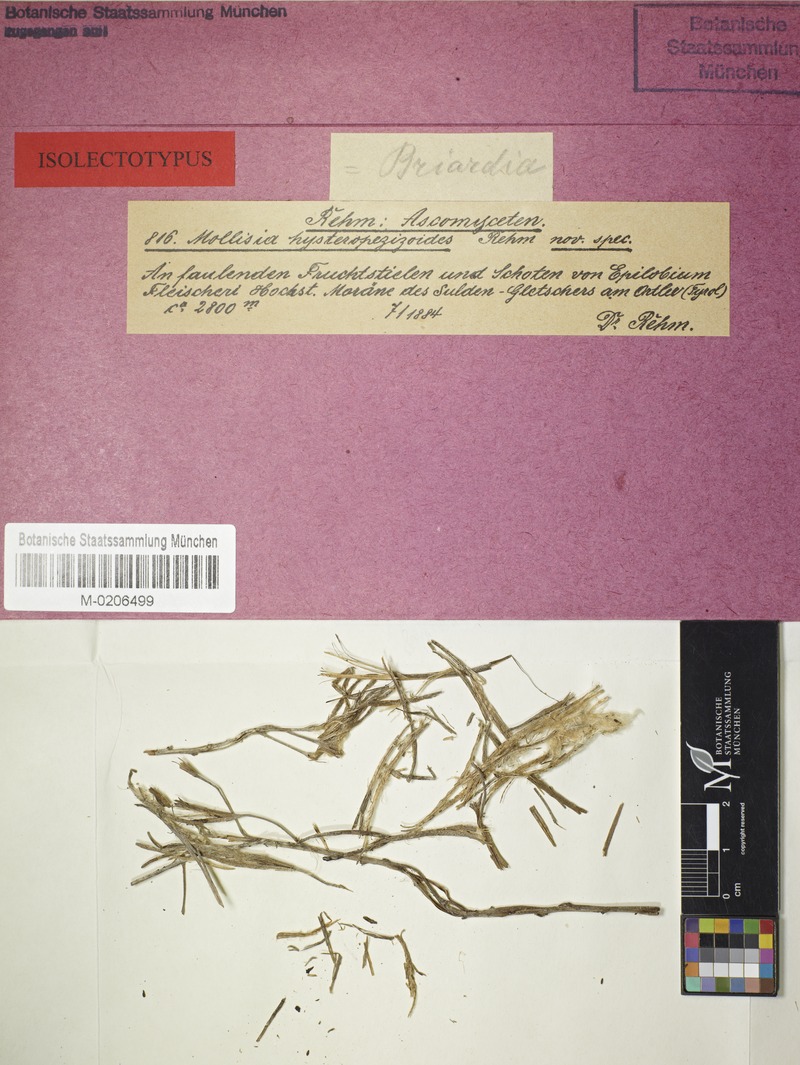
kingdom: Fungi
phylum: Ascomycota
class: Leotiomycetes
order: Helotiales
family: Discinellaceae
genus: Naevala
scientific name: Naevala hysteropezizoides
